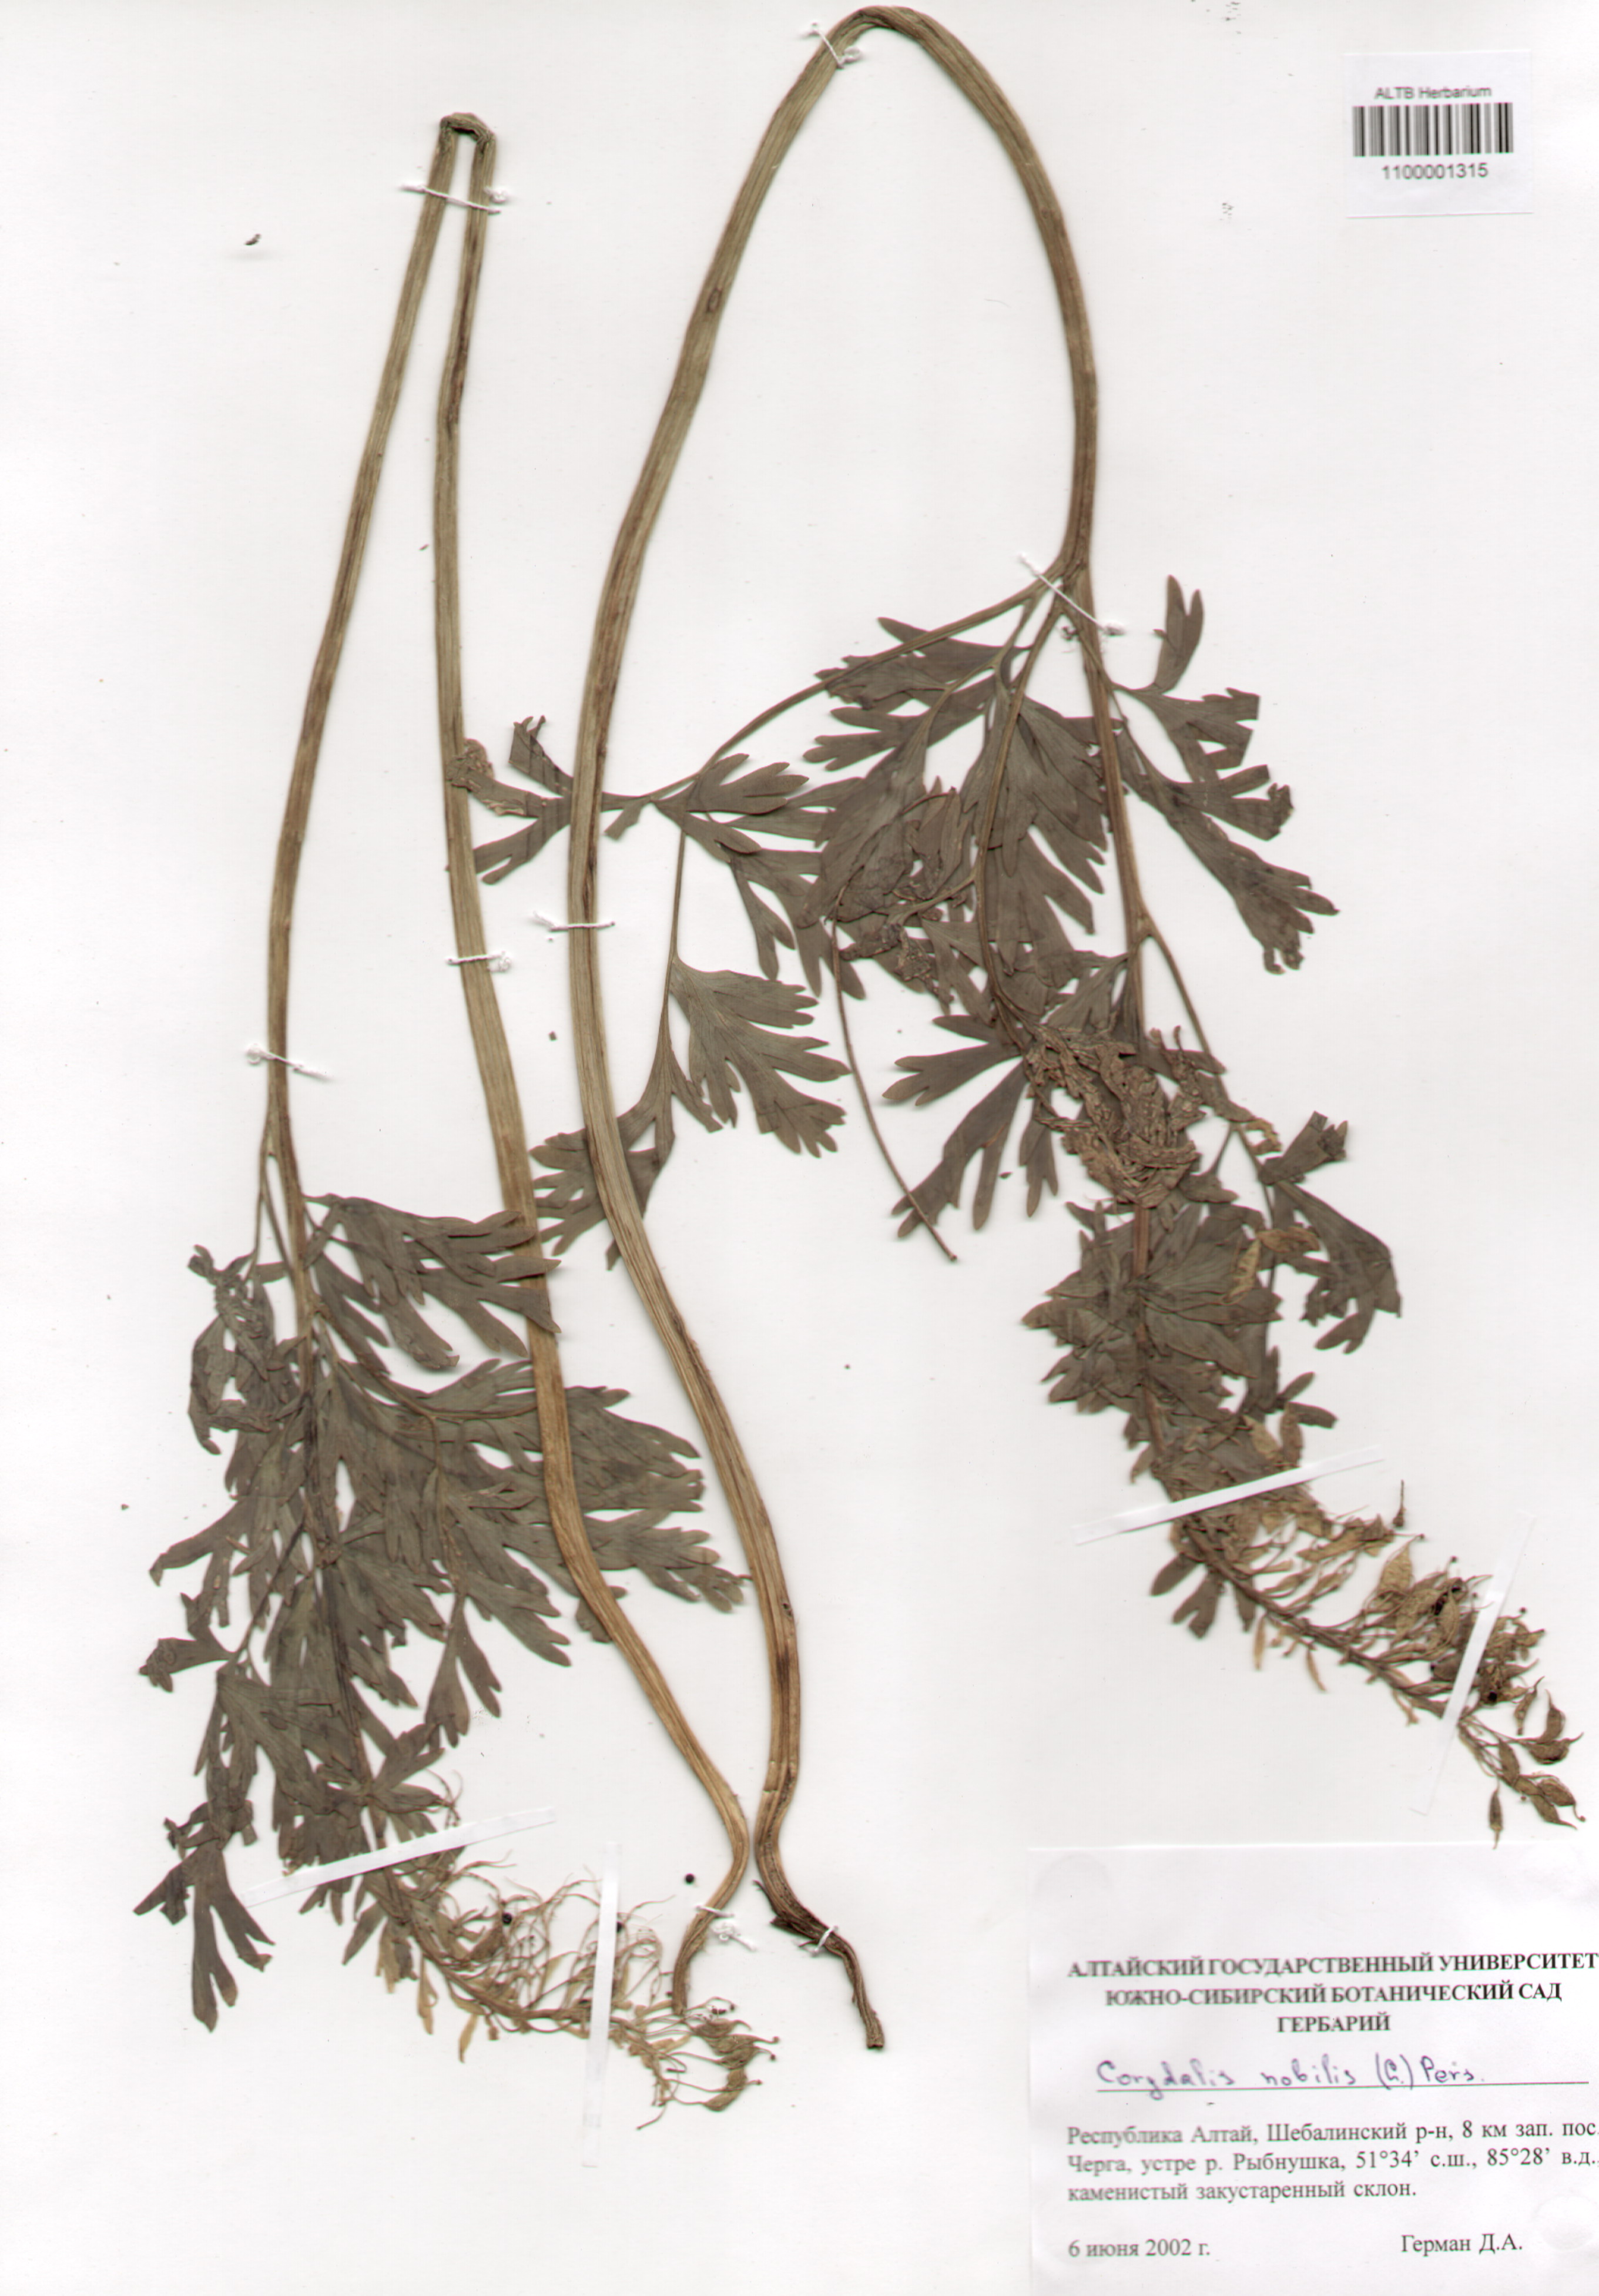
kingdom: Plantae
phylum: Tracheophyta
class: Magnoliopsida
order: Ranunculales
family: Papaveraceae
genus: Corydalis
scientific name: Corydalis nobilis
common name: Siberian corydalis
